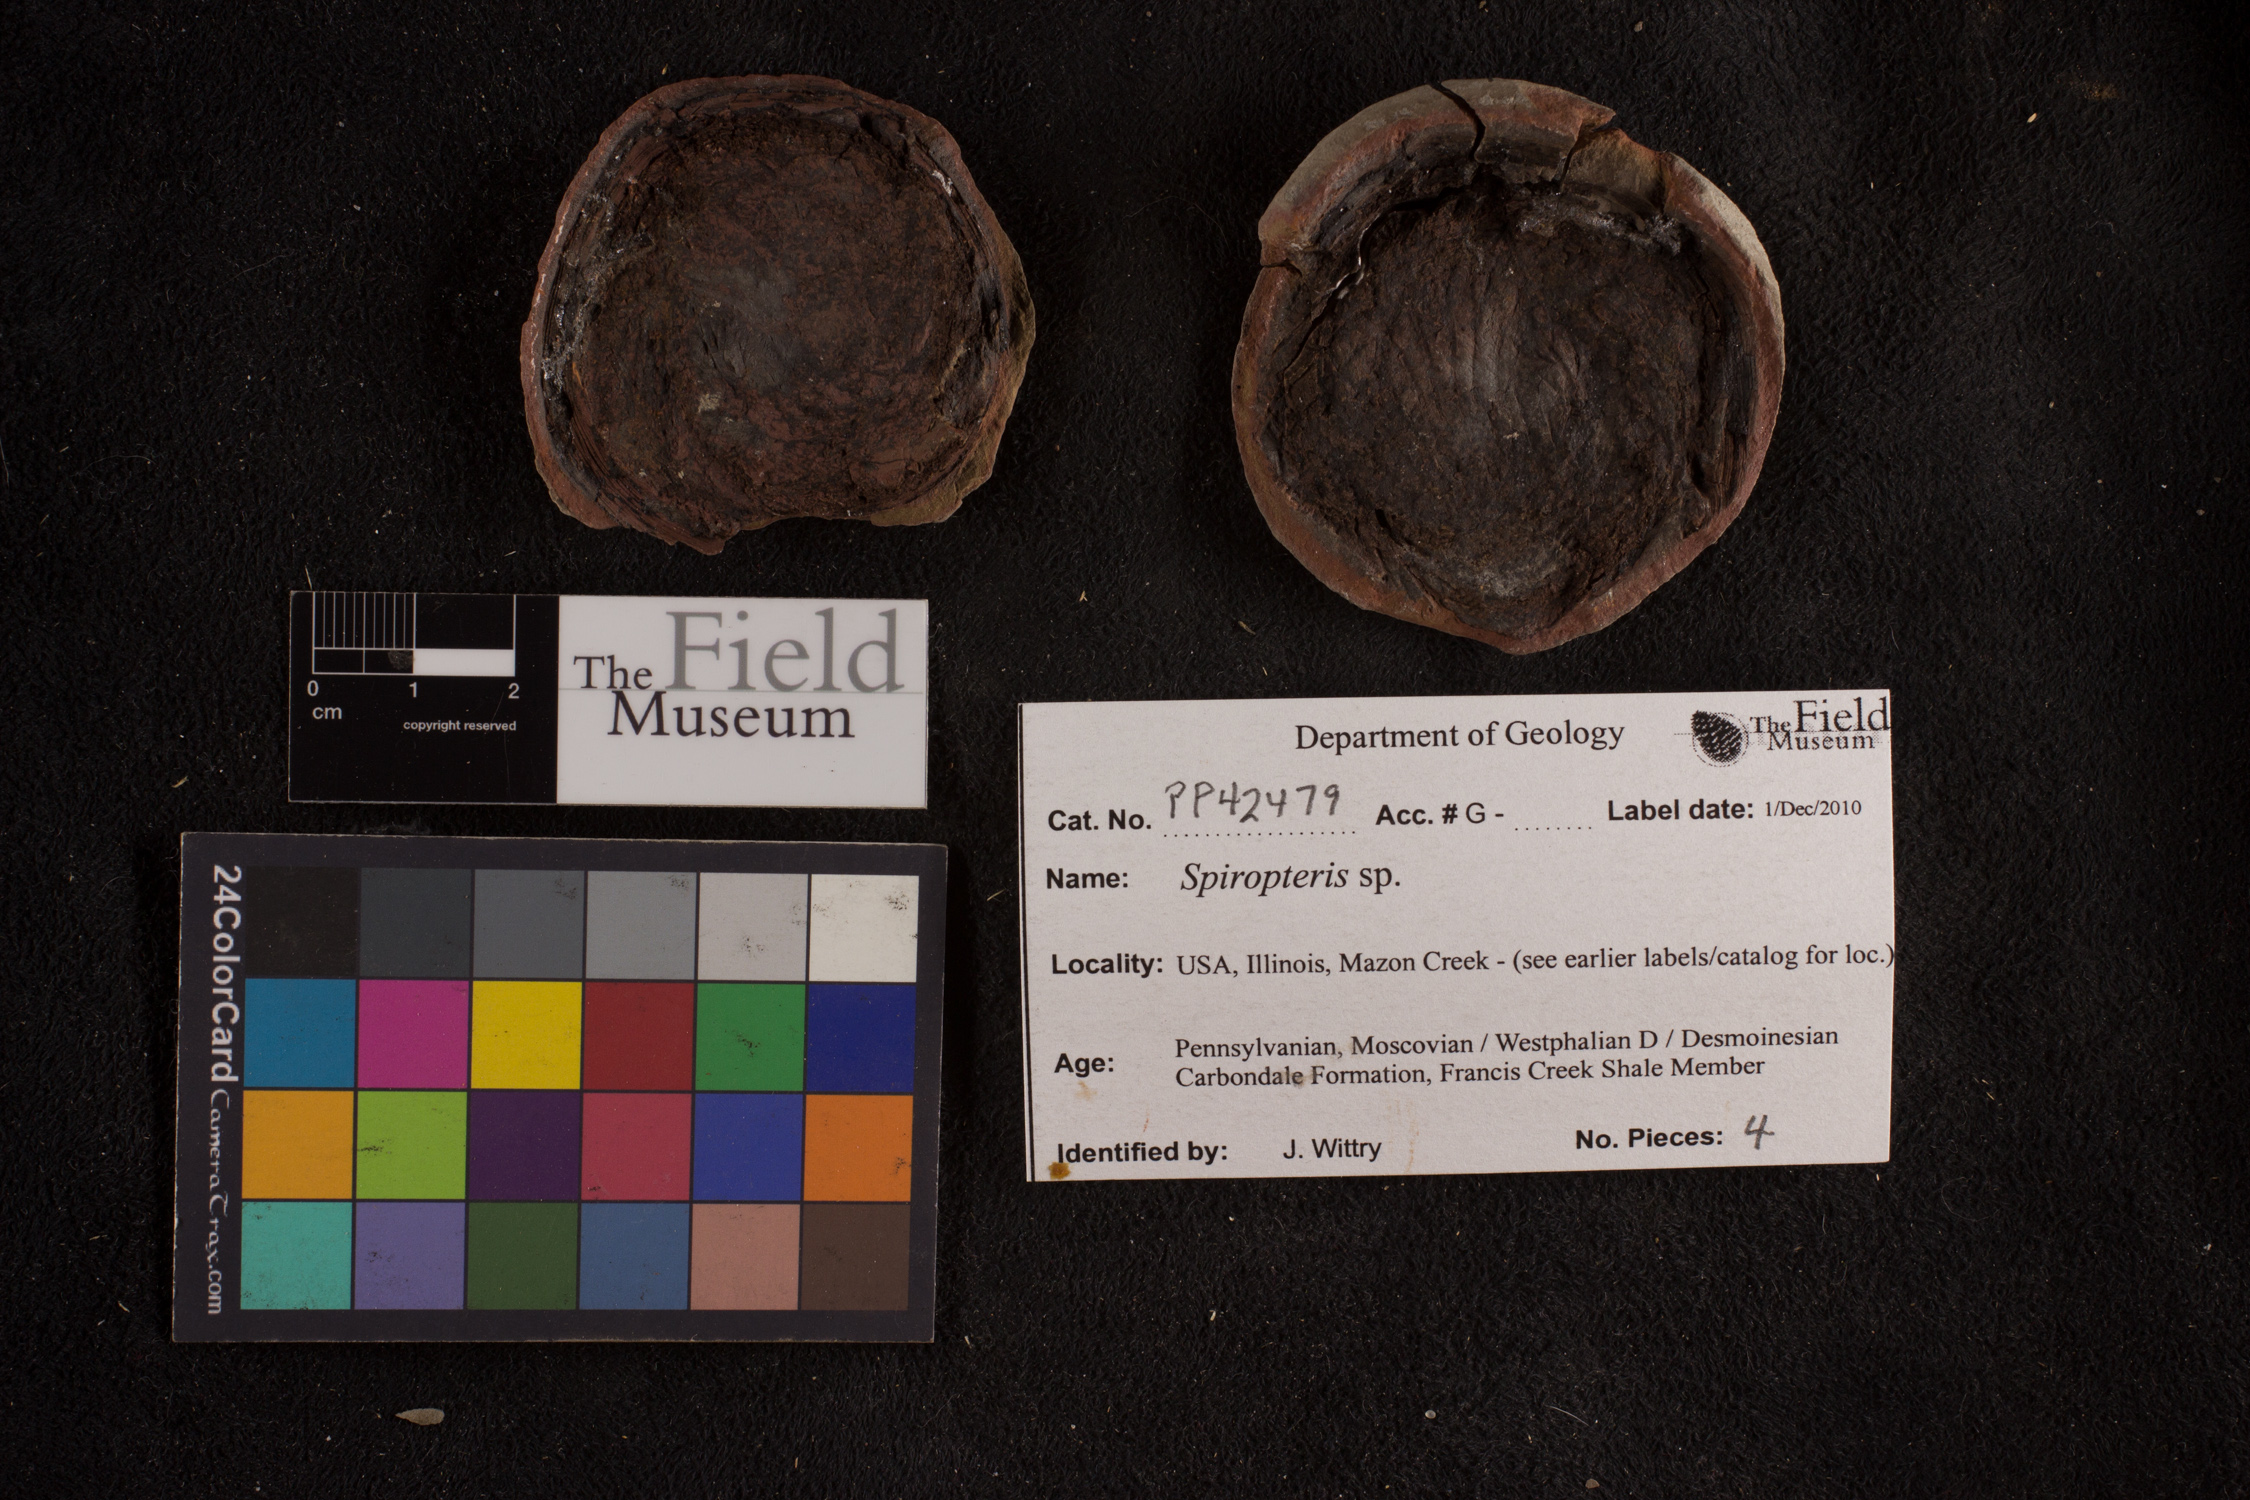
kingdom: Plantae
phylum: Tracheophyta
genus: Spiropteris
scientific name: Spiropteris
